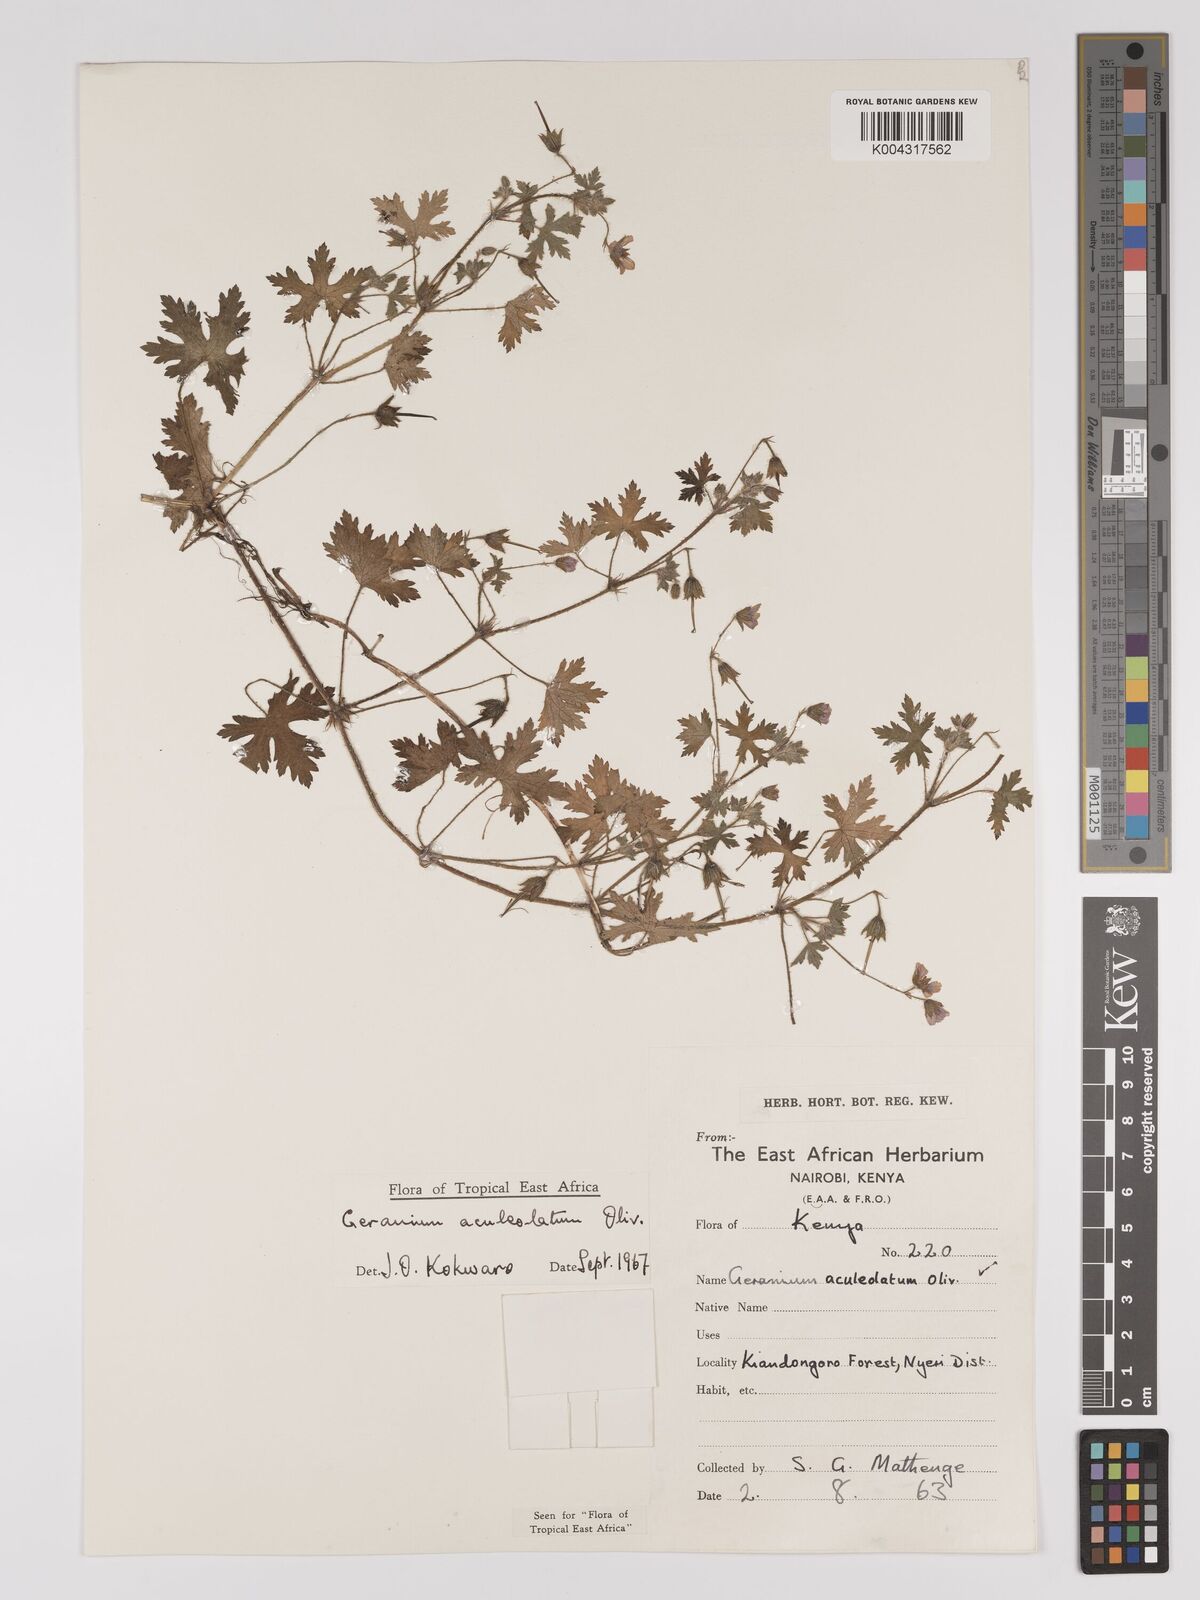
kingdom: Plantae
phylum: Tracheophyta
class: Magnoliopsida
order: Geraniales
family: Geraniaceae
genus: Geranium
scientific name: Geranium aculeolatum
